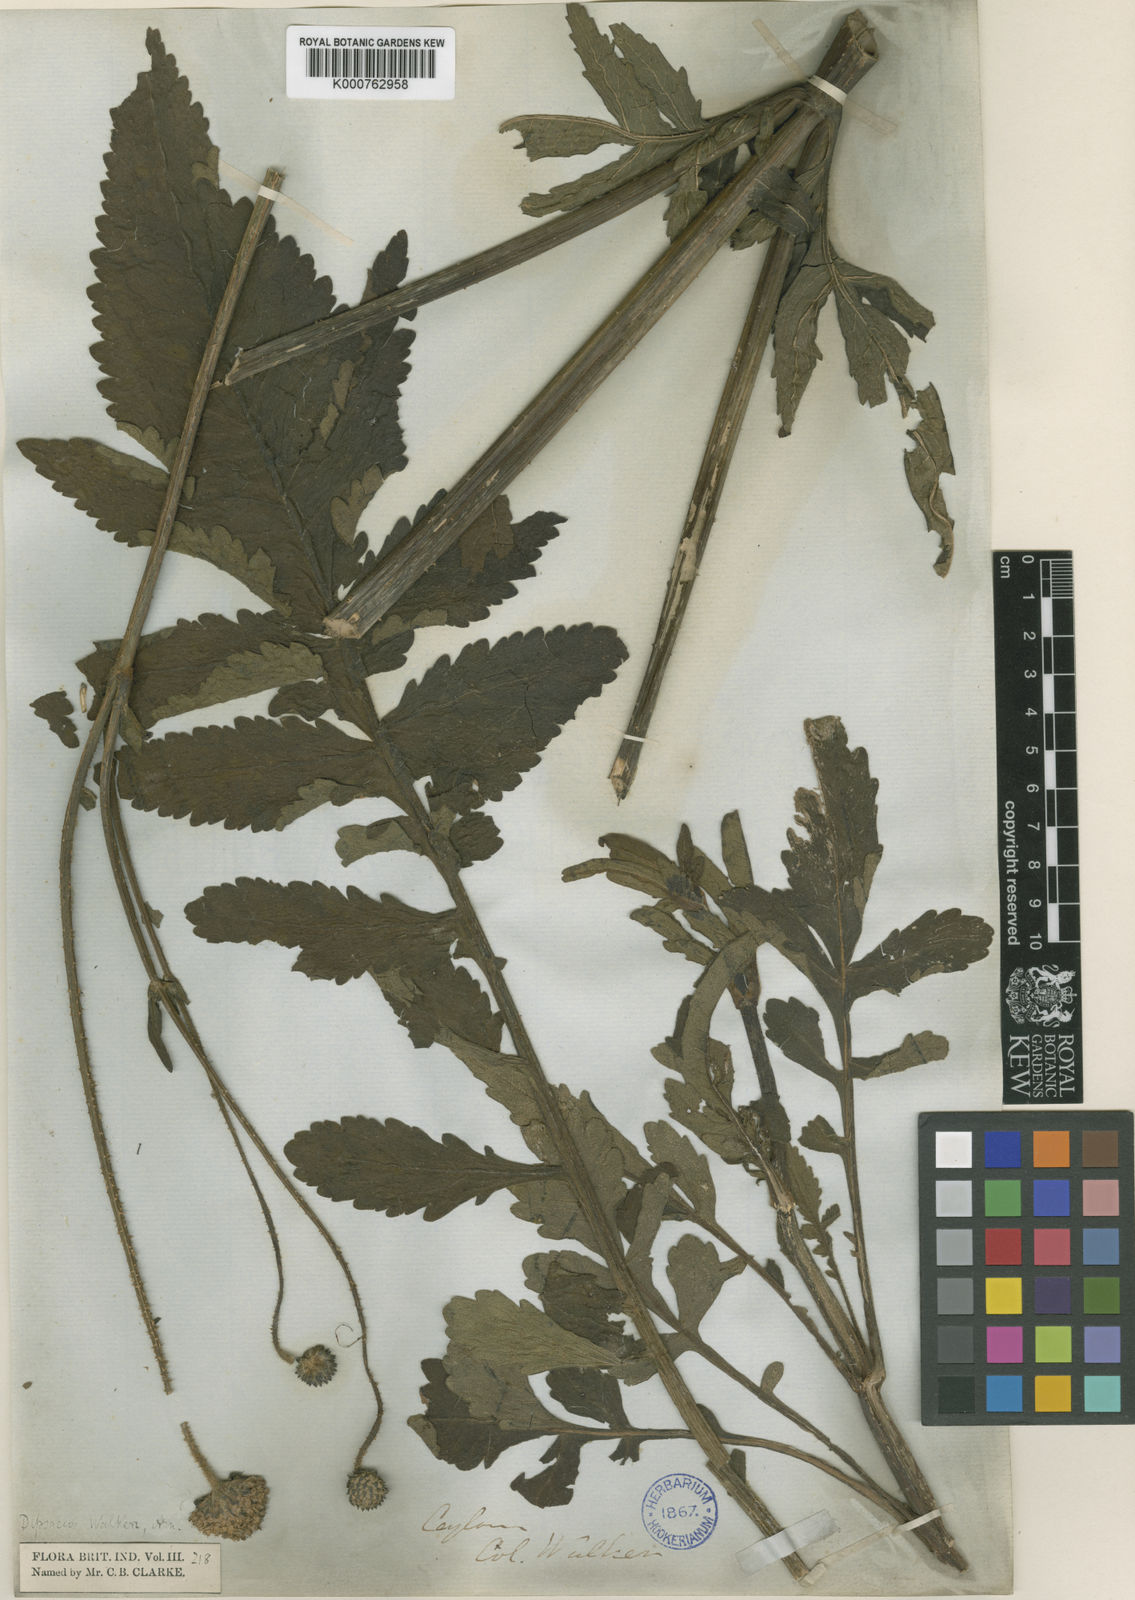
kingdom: Plantae
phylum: Tracheophyta
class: Magnoliopsida
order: Dipsacales
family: Caprifoliaceae
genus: Dipsacus
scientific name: Dipsacus walkeri
